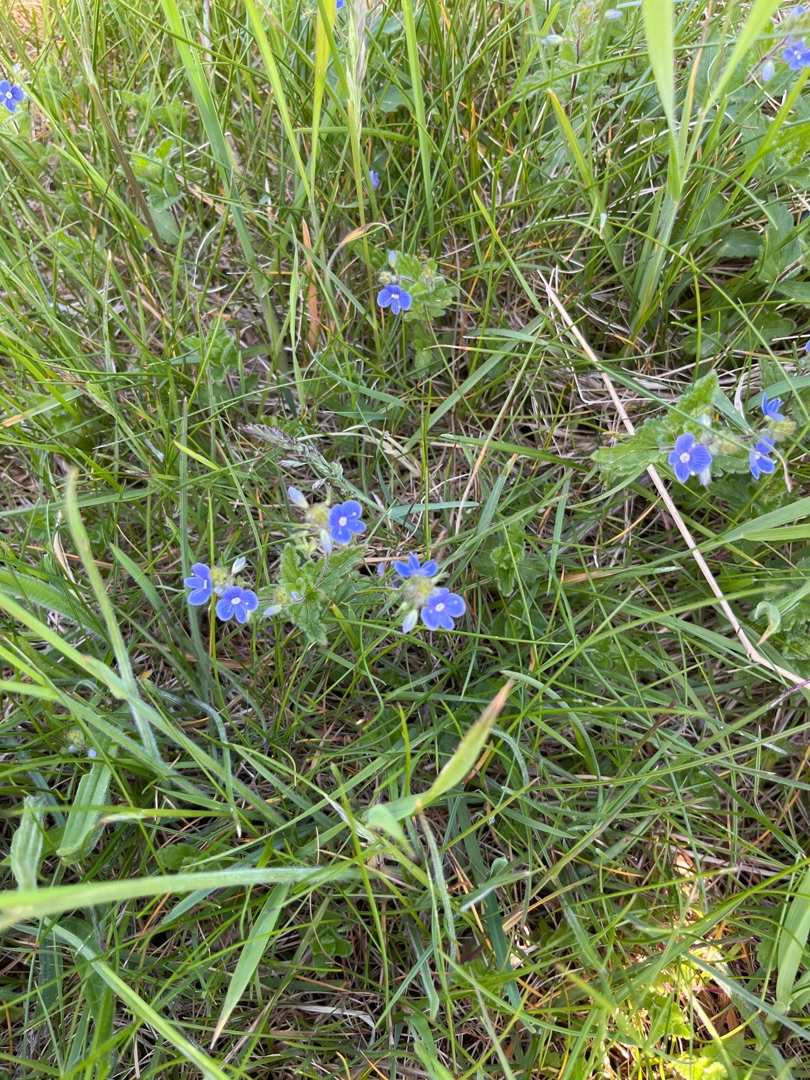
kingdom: Plantae
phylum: Tracheophyta
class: Magnoliopsida
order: Lamiales
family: Plantaginaceae
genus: Veronica
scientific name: Veronica chamaedrys
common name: Tveskægget ærenpris
